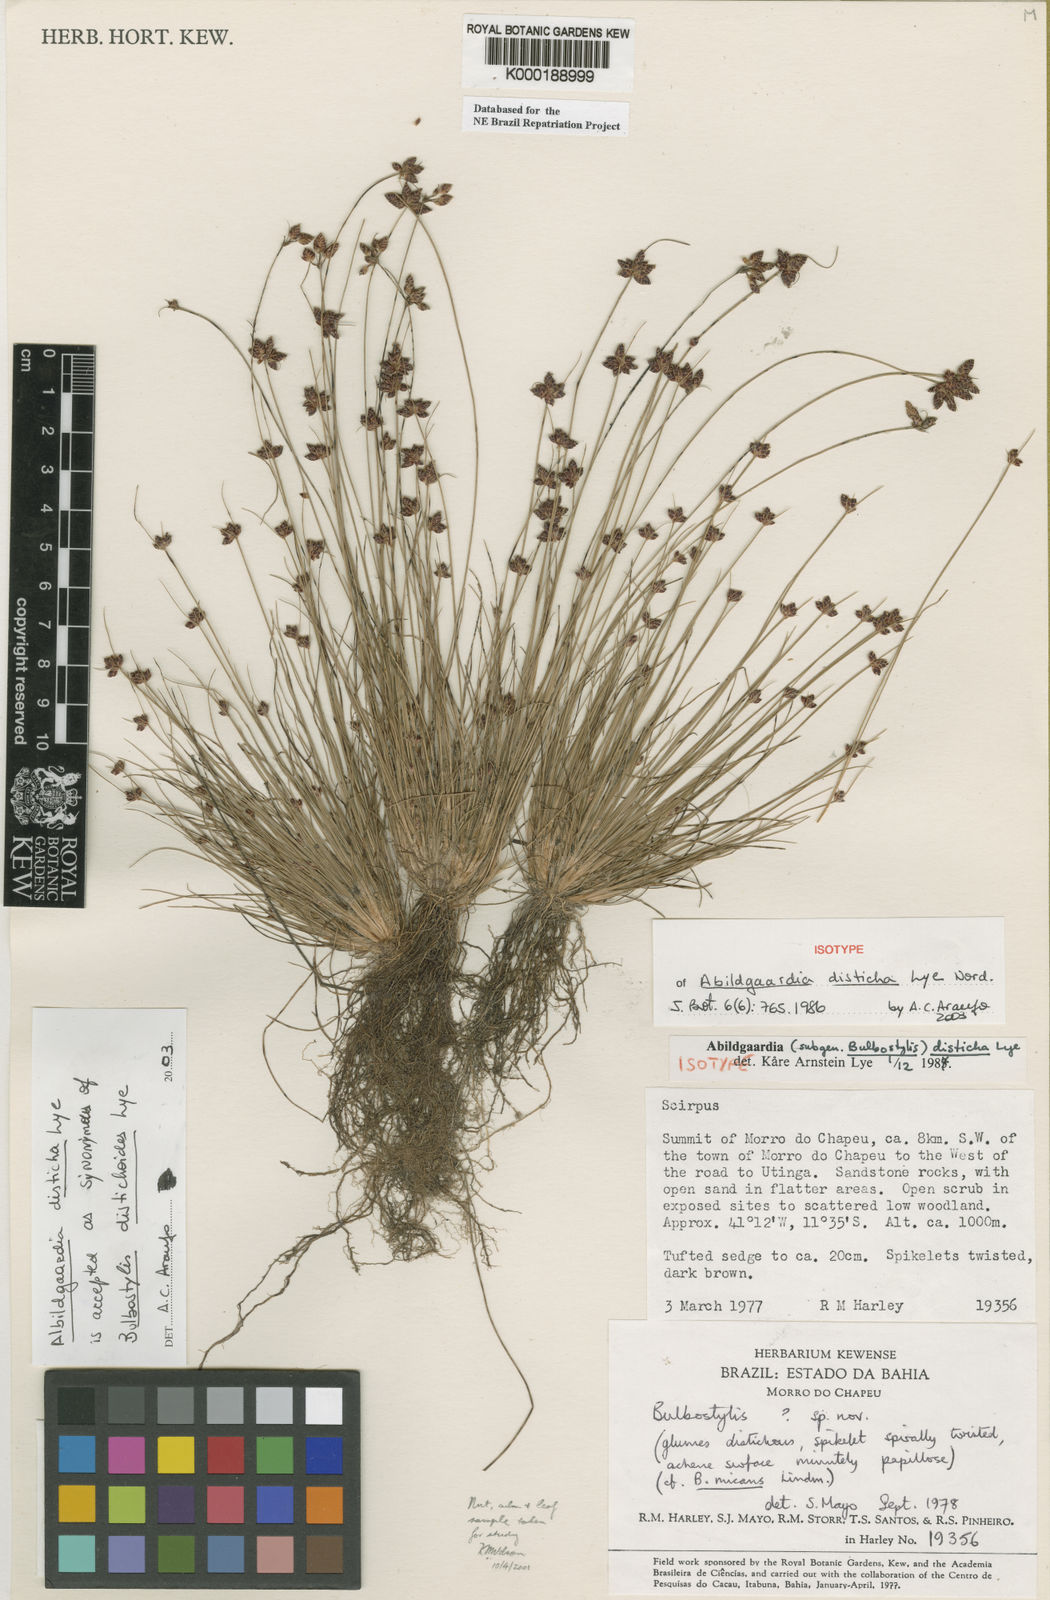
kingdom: Plantae
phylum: Tracheophyta
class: Liliopsida
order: Poales
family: Cyperaceae
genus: Bulbostylis
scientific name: Bulbostylis distichoides
